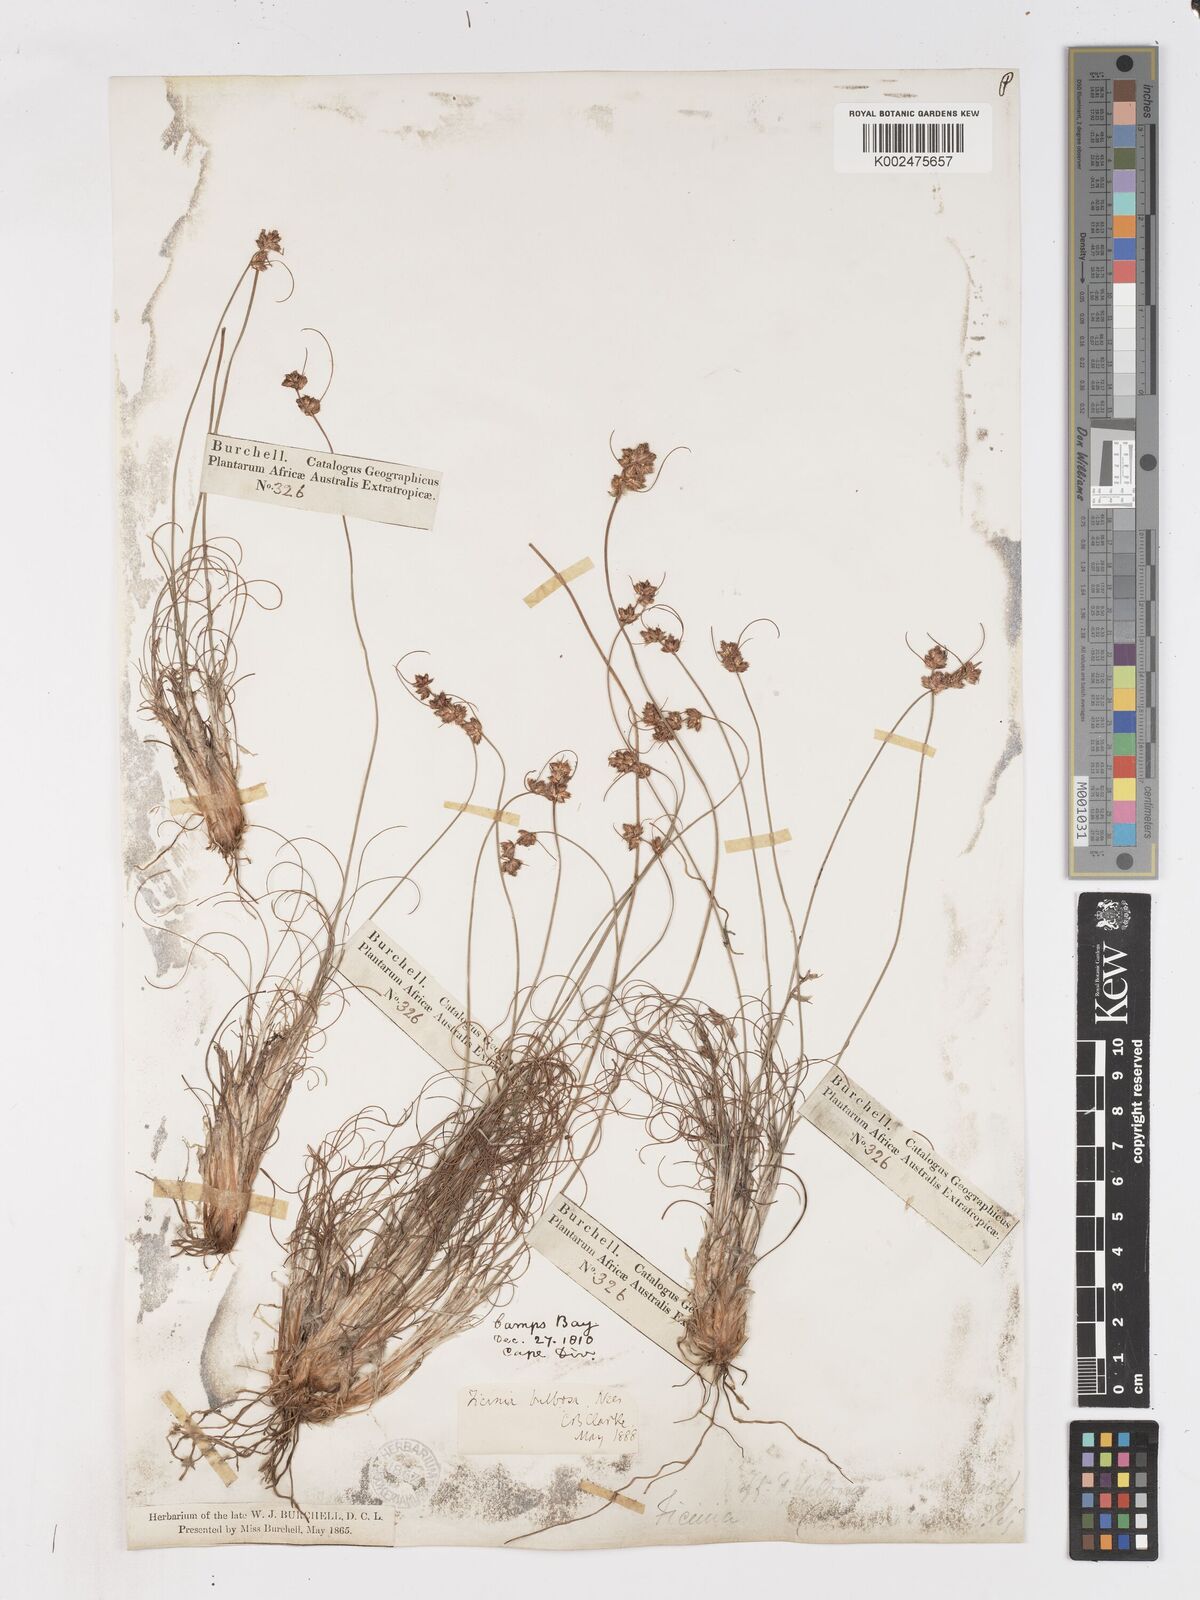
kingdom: Plantae
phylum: Tracheophyta
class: Liliopsida
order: Poales
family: Cyperaceae
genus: Ficinia
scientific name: Ficinia bulbosa
